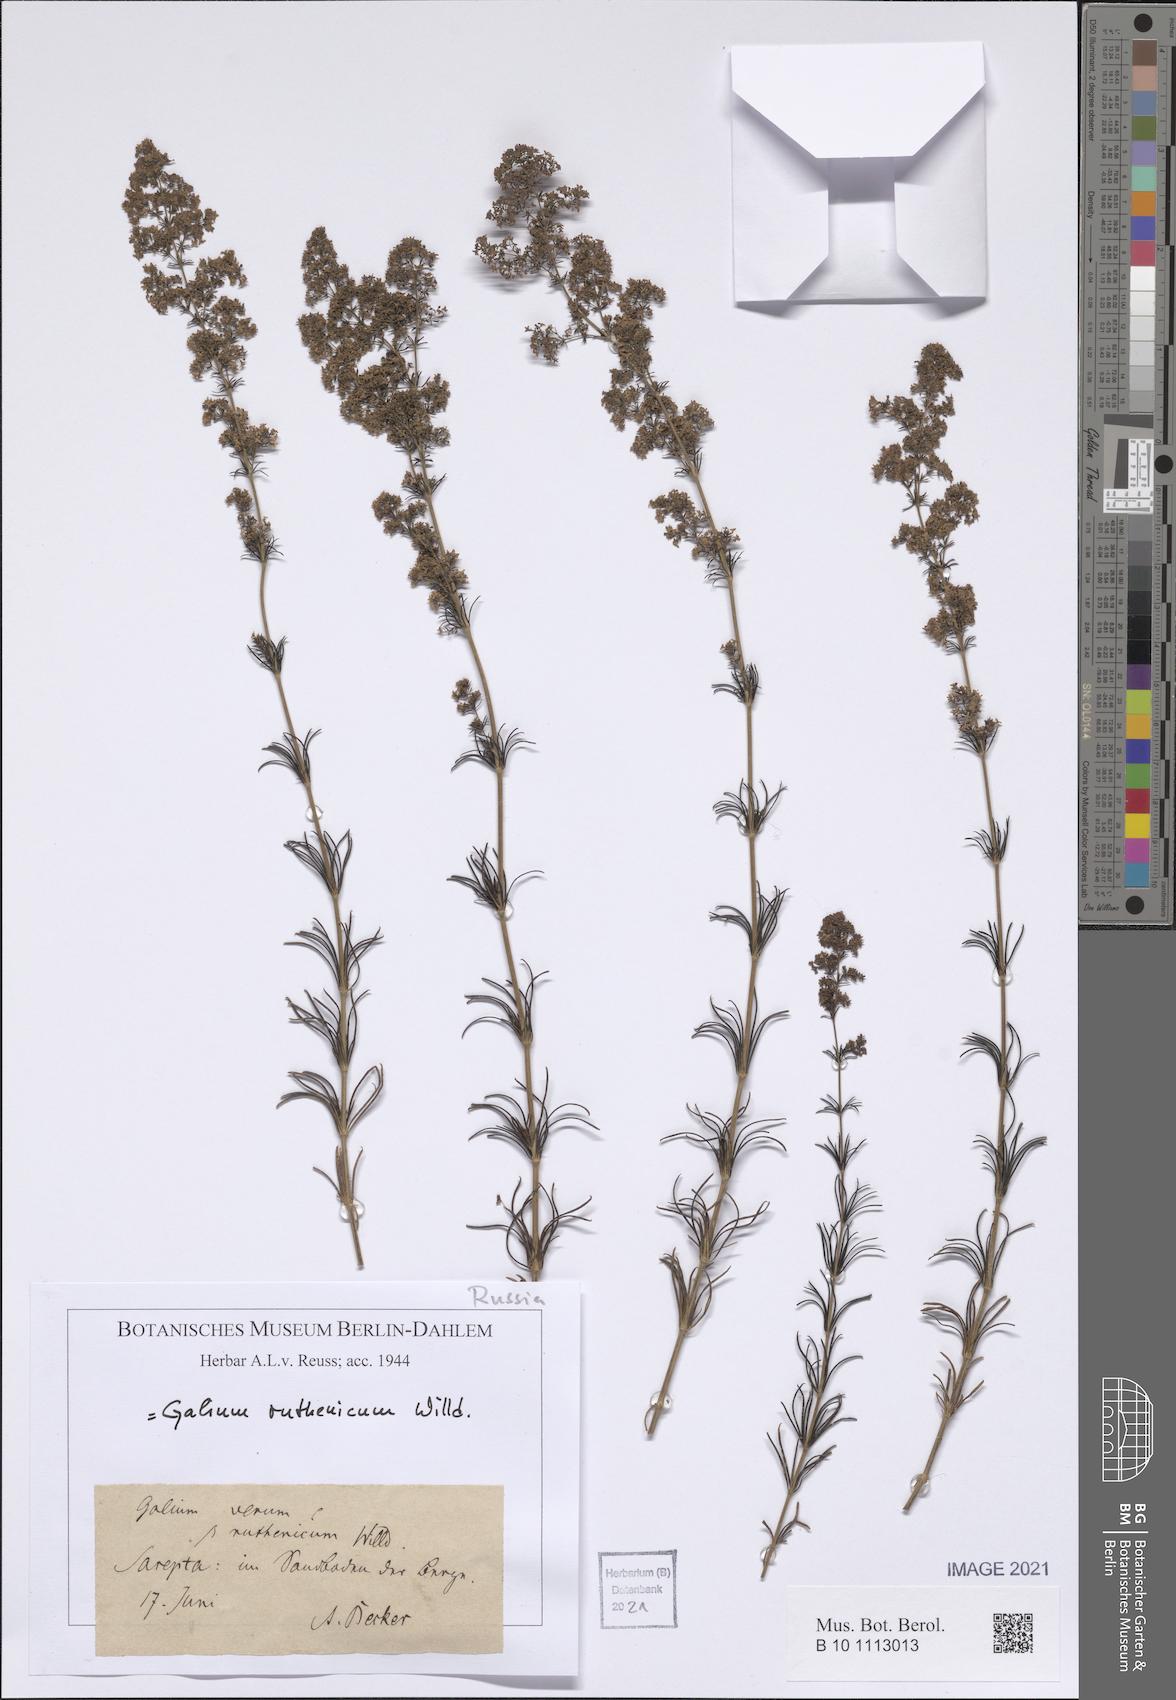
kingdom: Plantae
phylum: Tracheophyta
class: Magnoliopsida
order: Gentianales
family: Rubiaceae
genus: Galium
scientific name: Galium verum
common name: Lady's bedstraw
